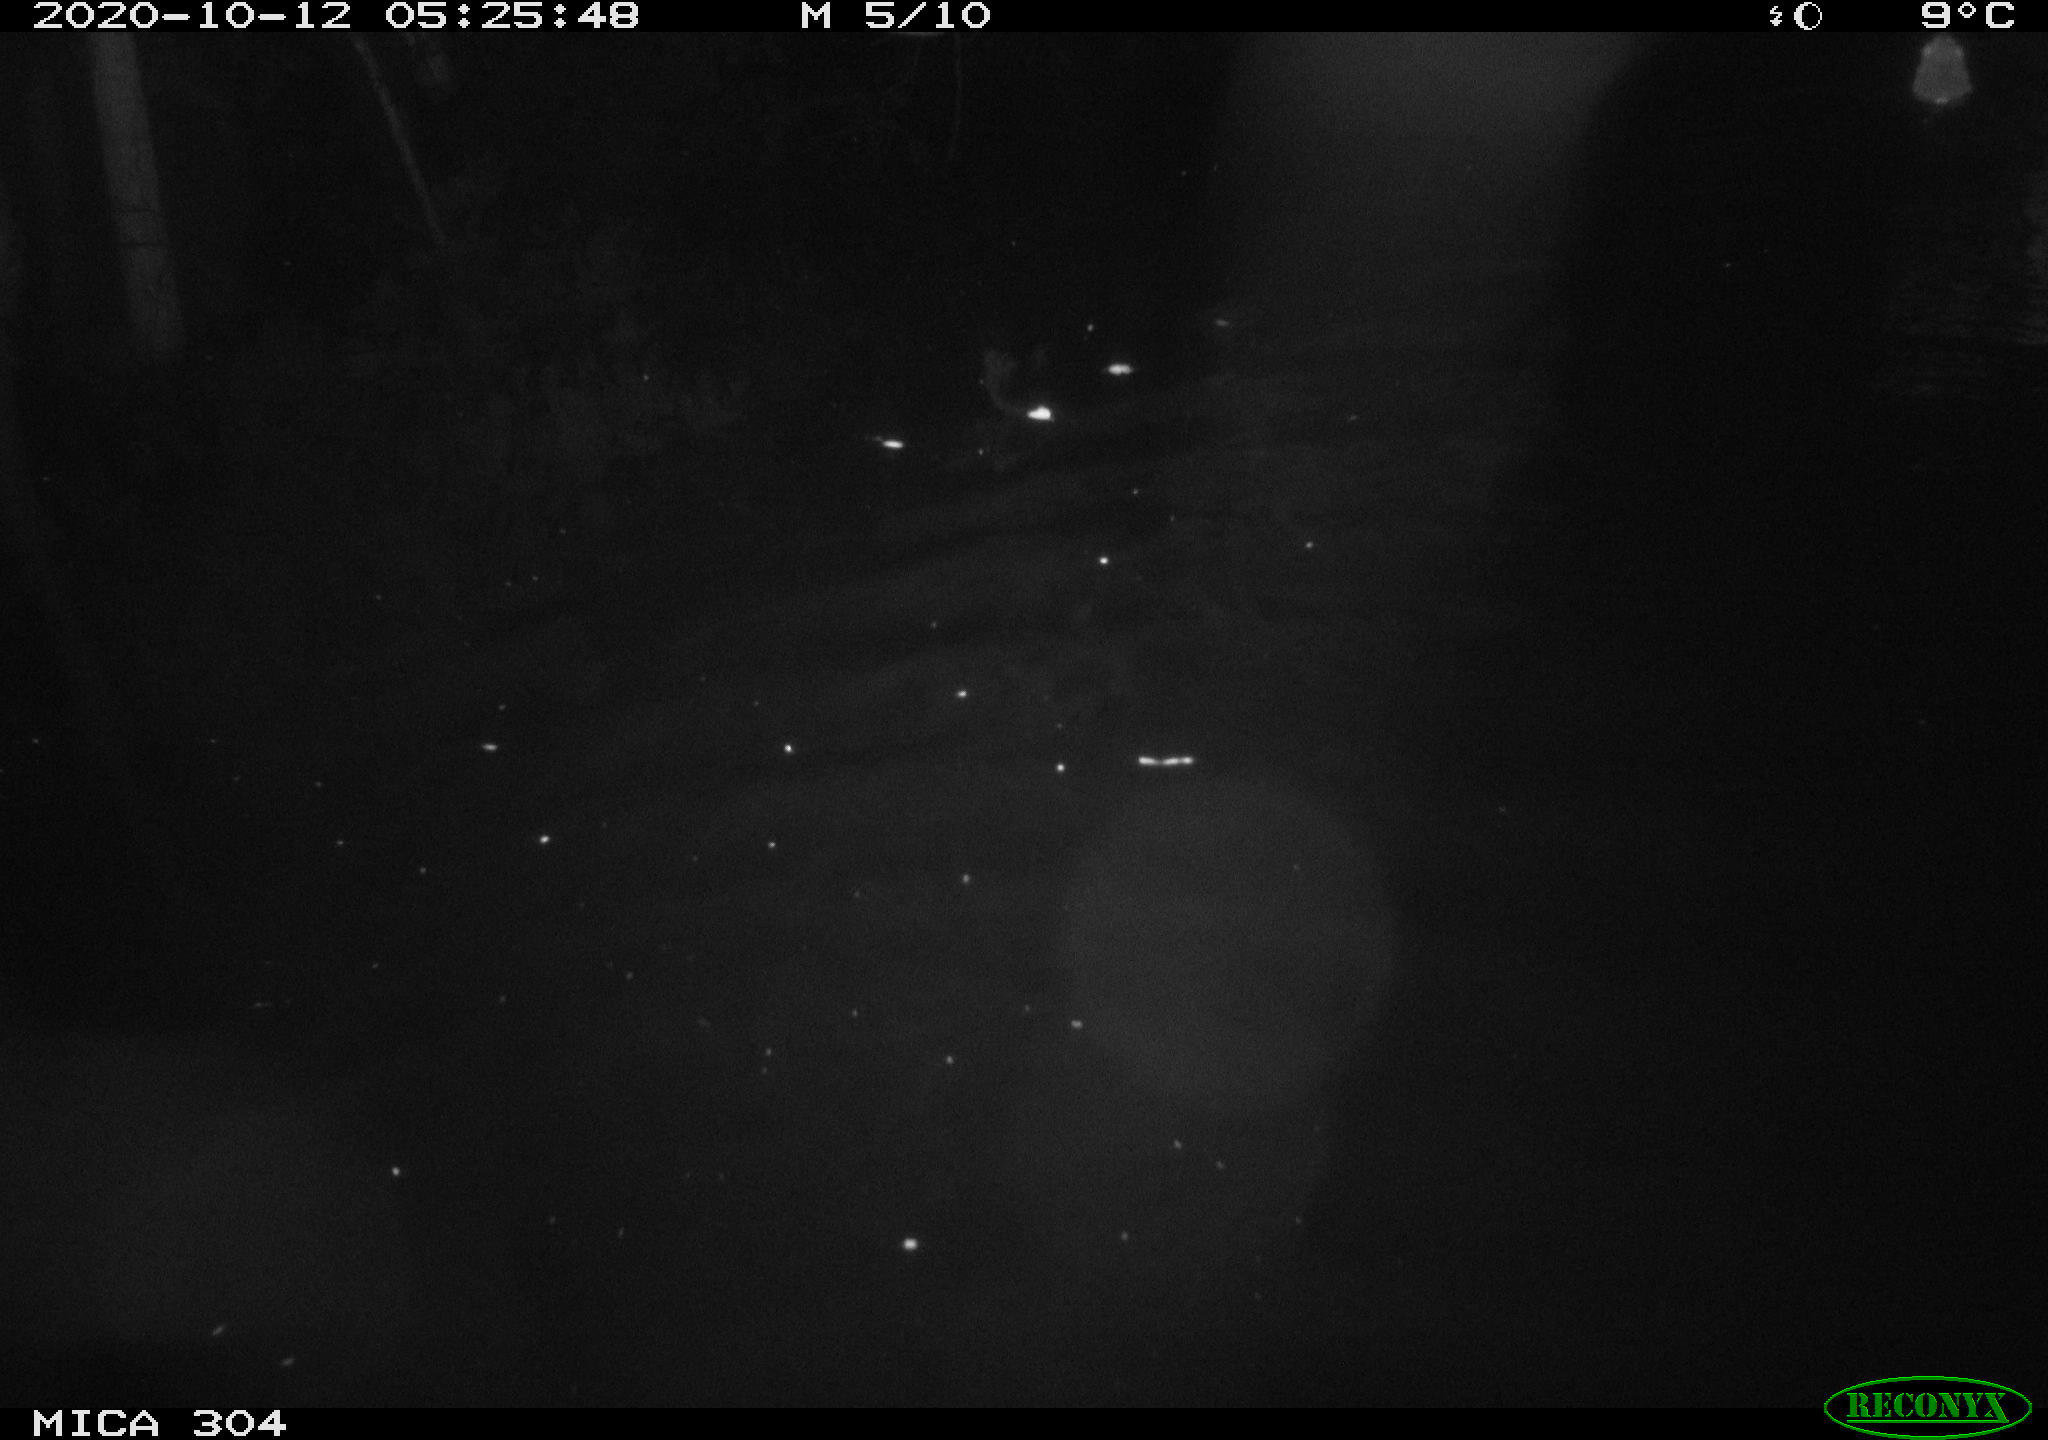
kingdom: Animalia
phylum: Chordata
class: Mammalia
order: Rodentia
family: Cricetidae
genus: Ondatra
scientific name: Ondatra zibethicus
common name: Muskrat
